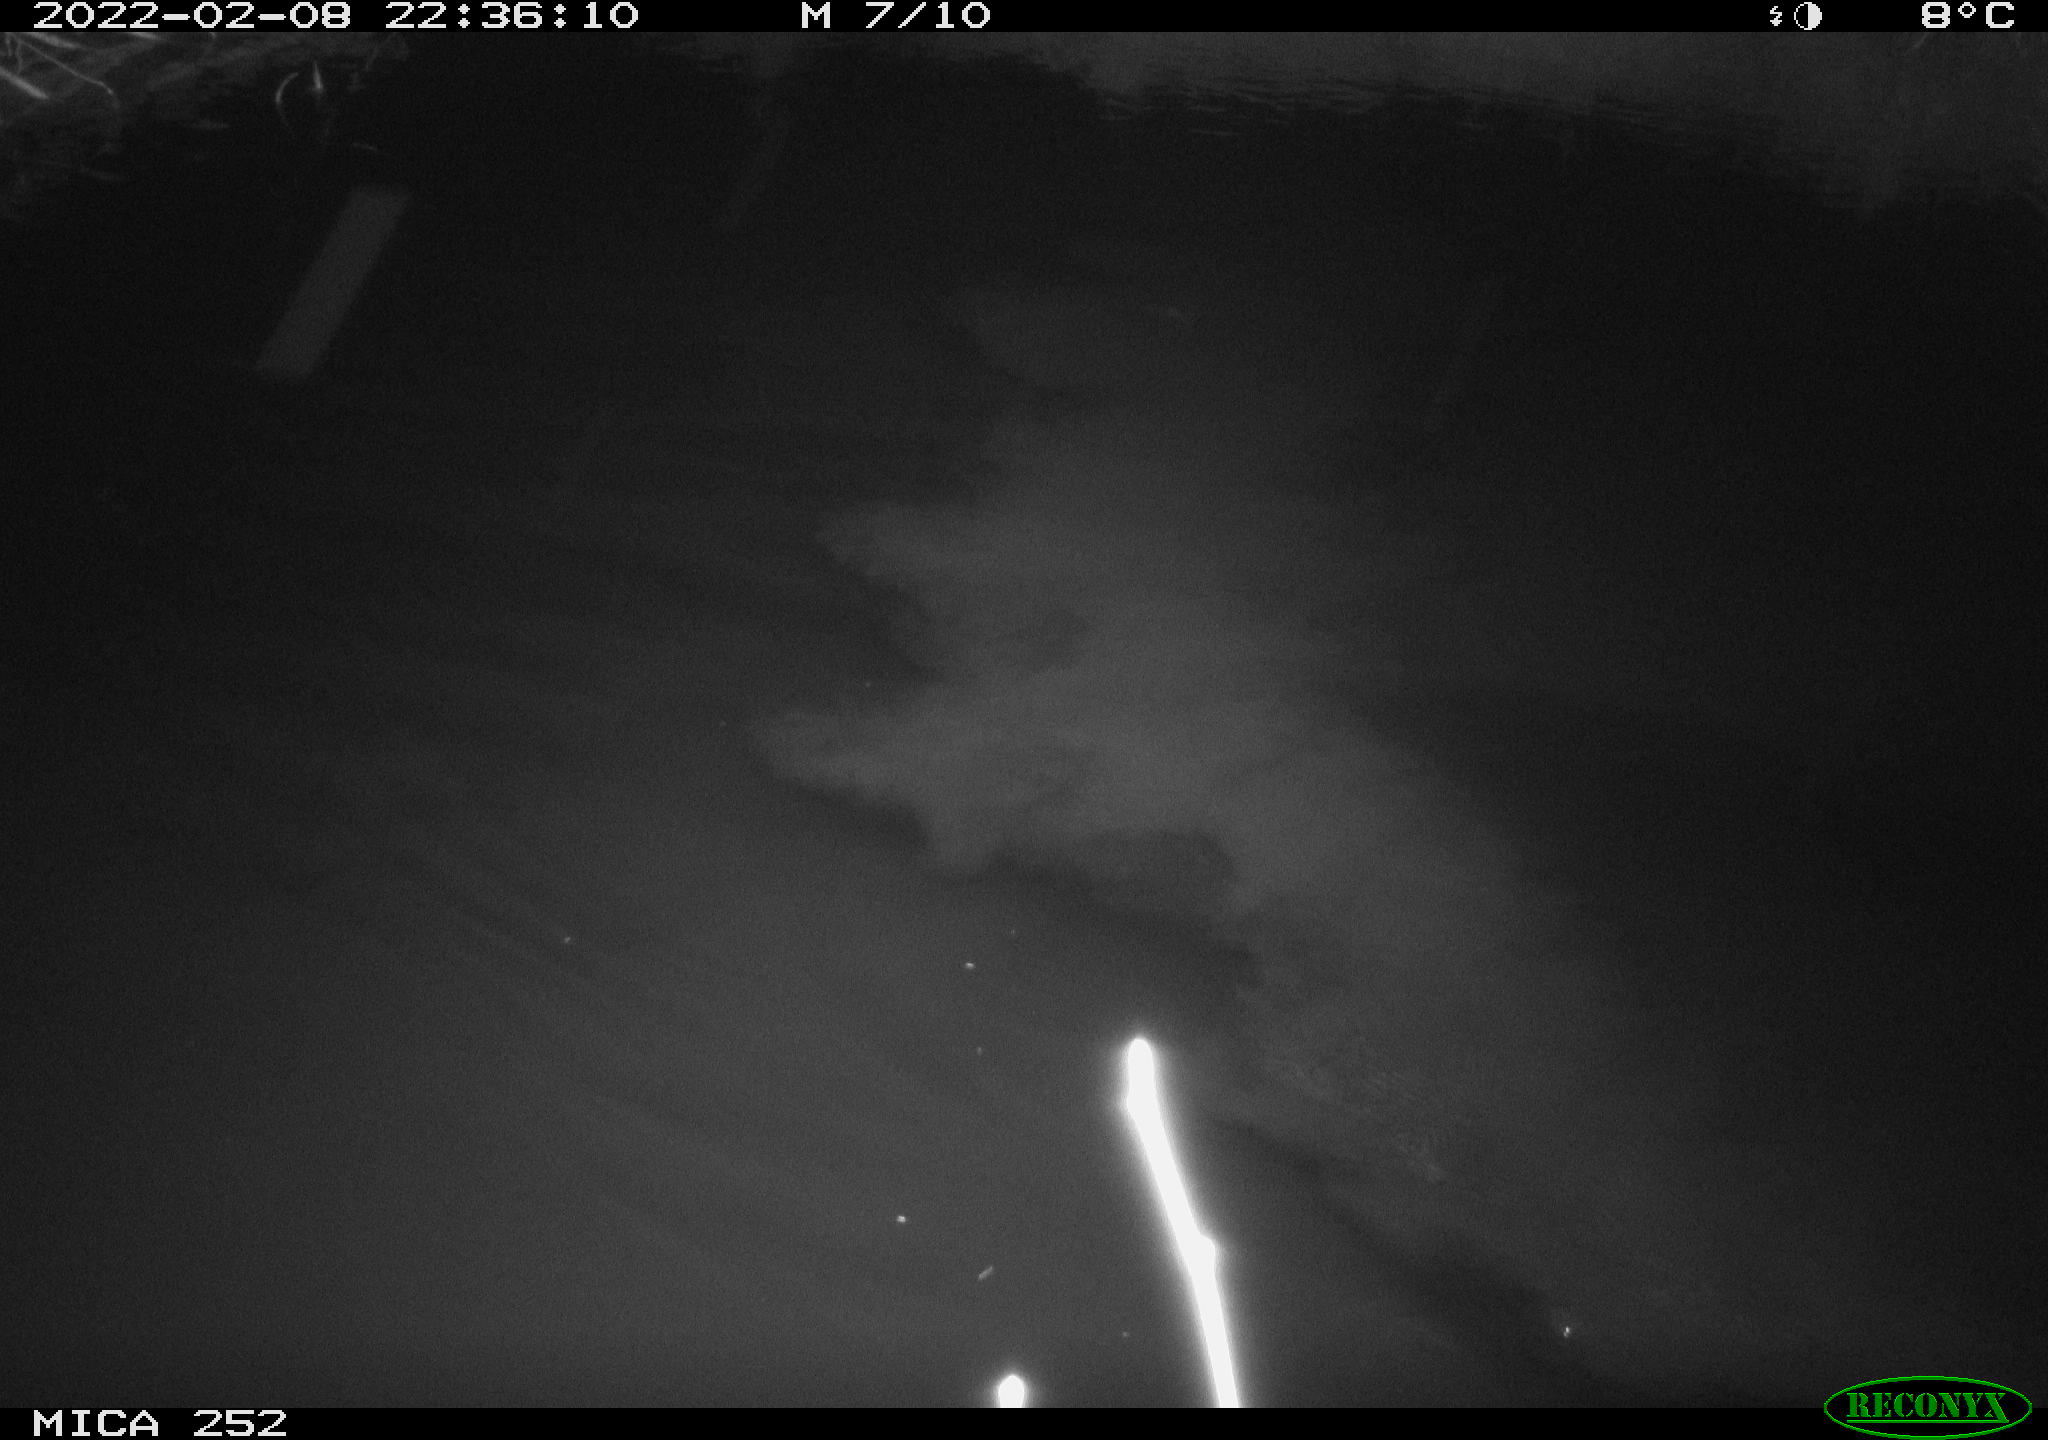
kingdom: Animalia
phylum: Chordata
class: Mammalia
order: Rodentia
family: Castoridae
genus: Castor
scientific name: Castor fiber
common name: Eurasian beaver
